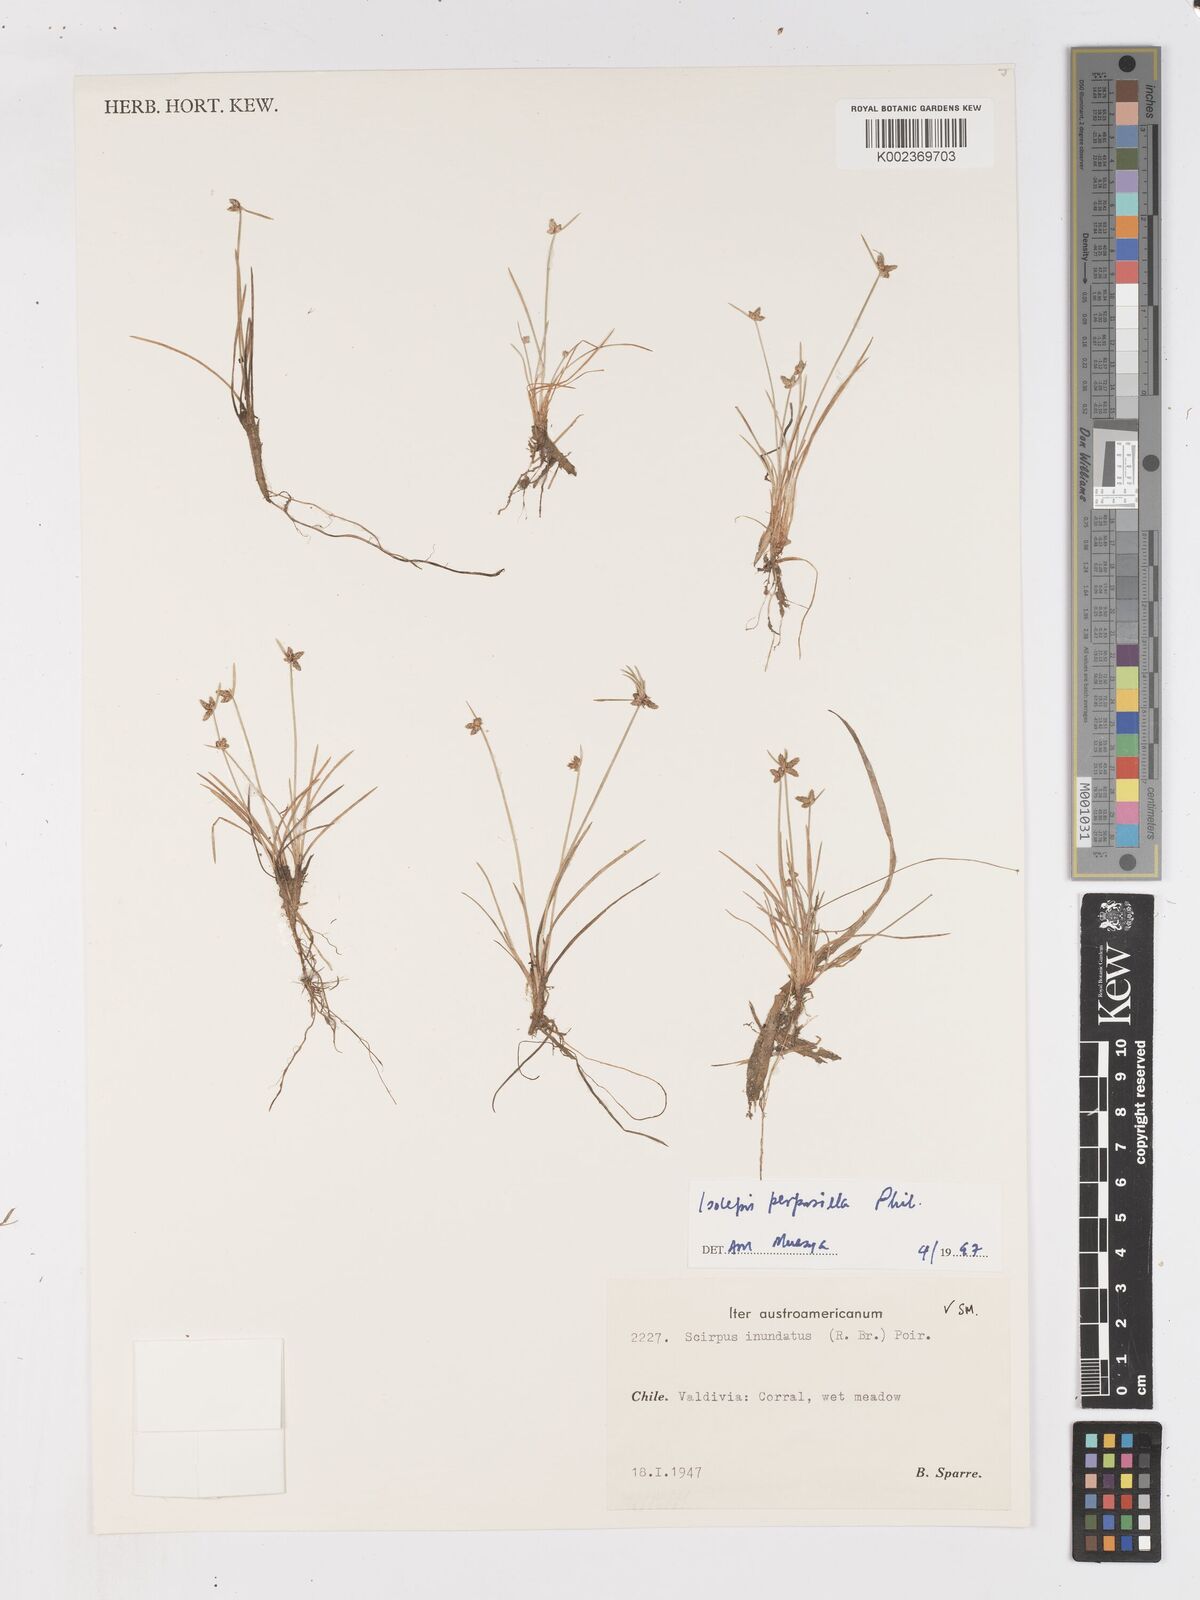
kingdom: Plantae
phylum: Tracheophyta
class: Liliopsida
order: Poales
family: Cyperaceae
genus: Isolepis
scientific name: Isolepis ranko
